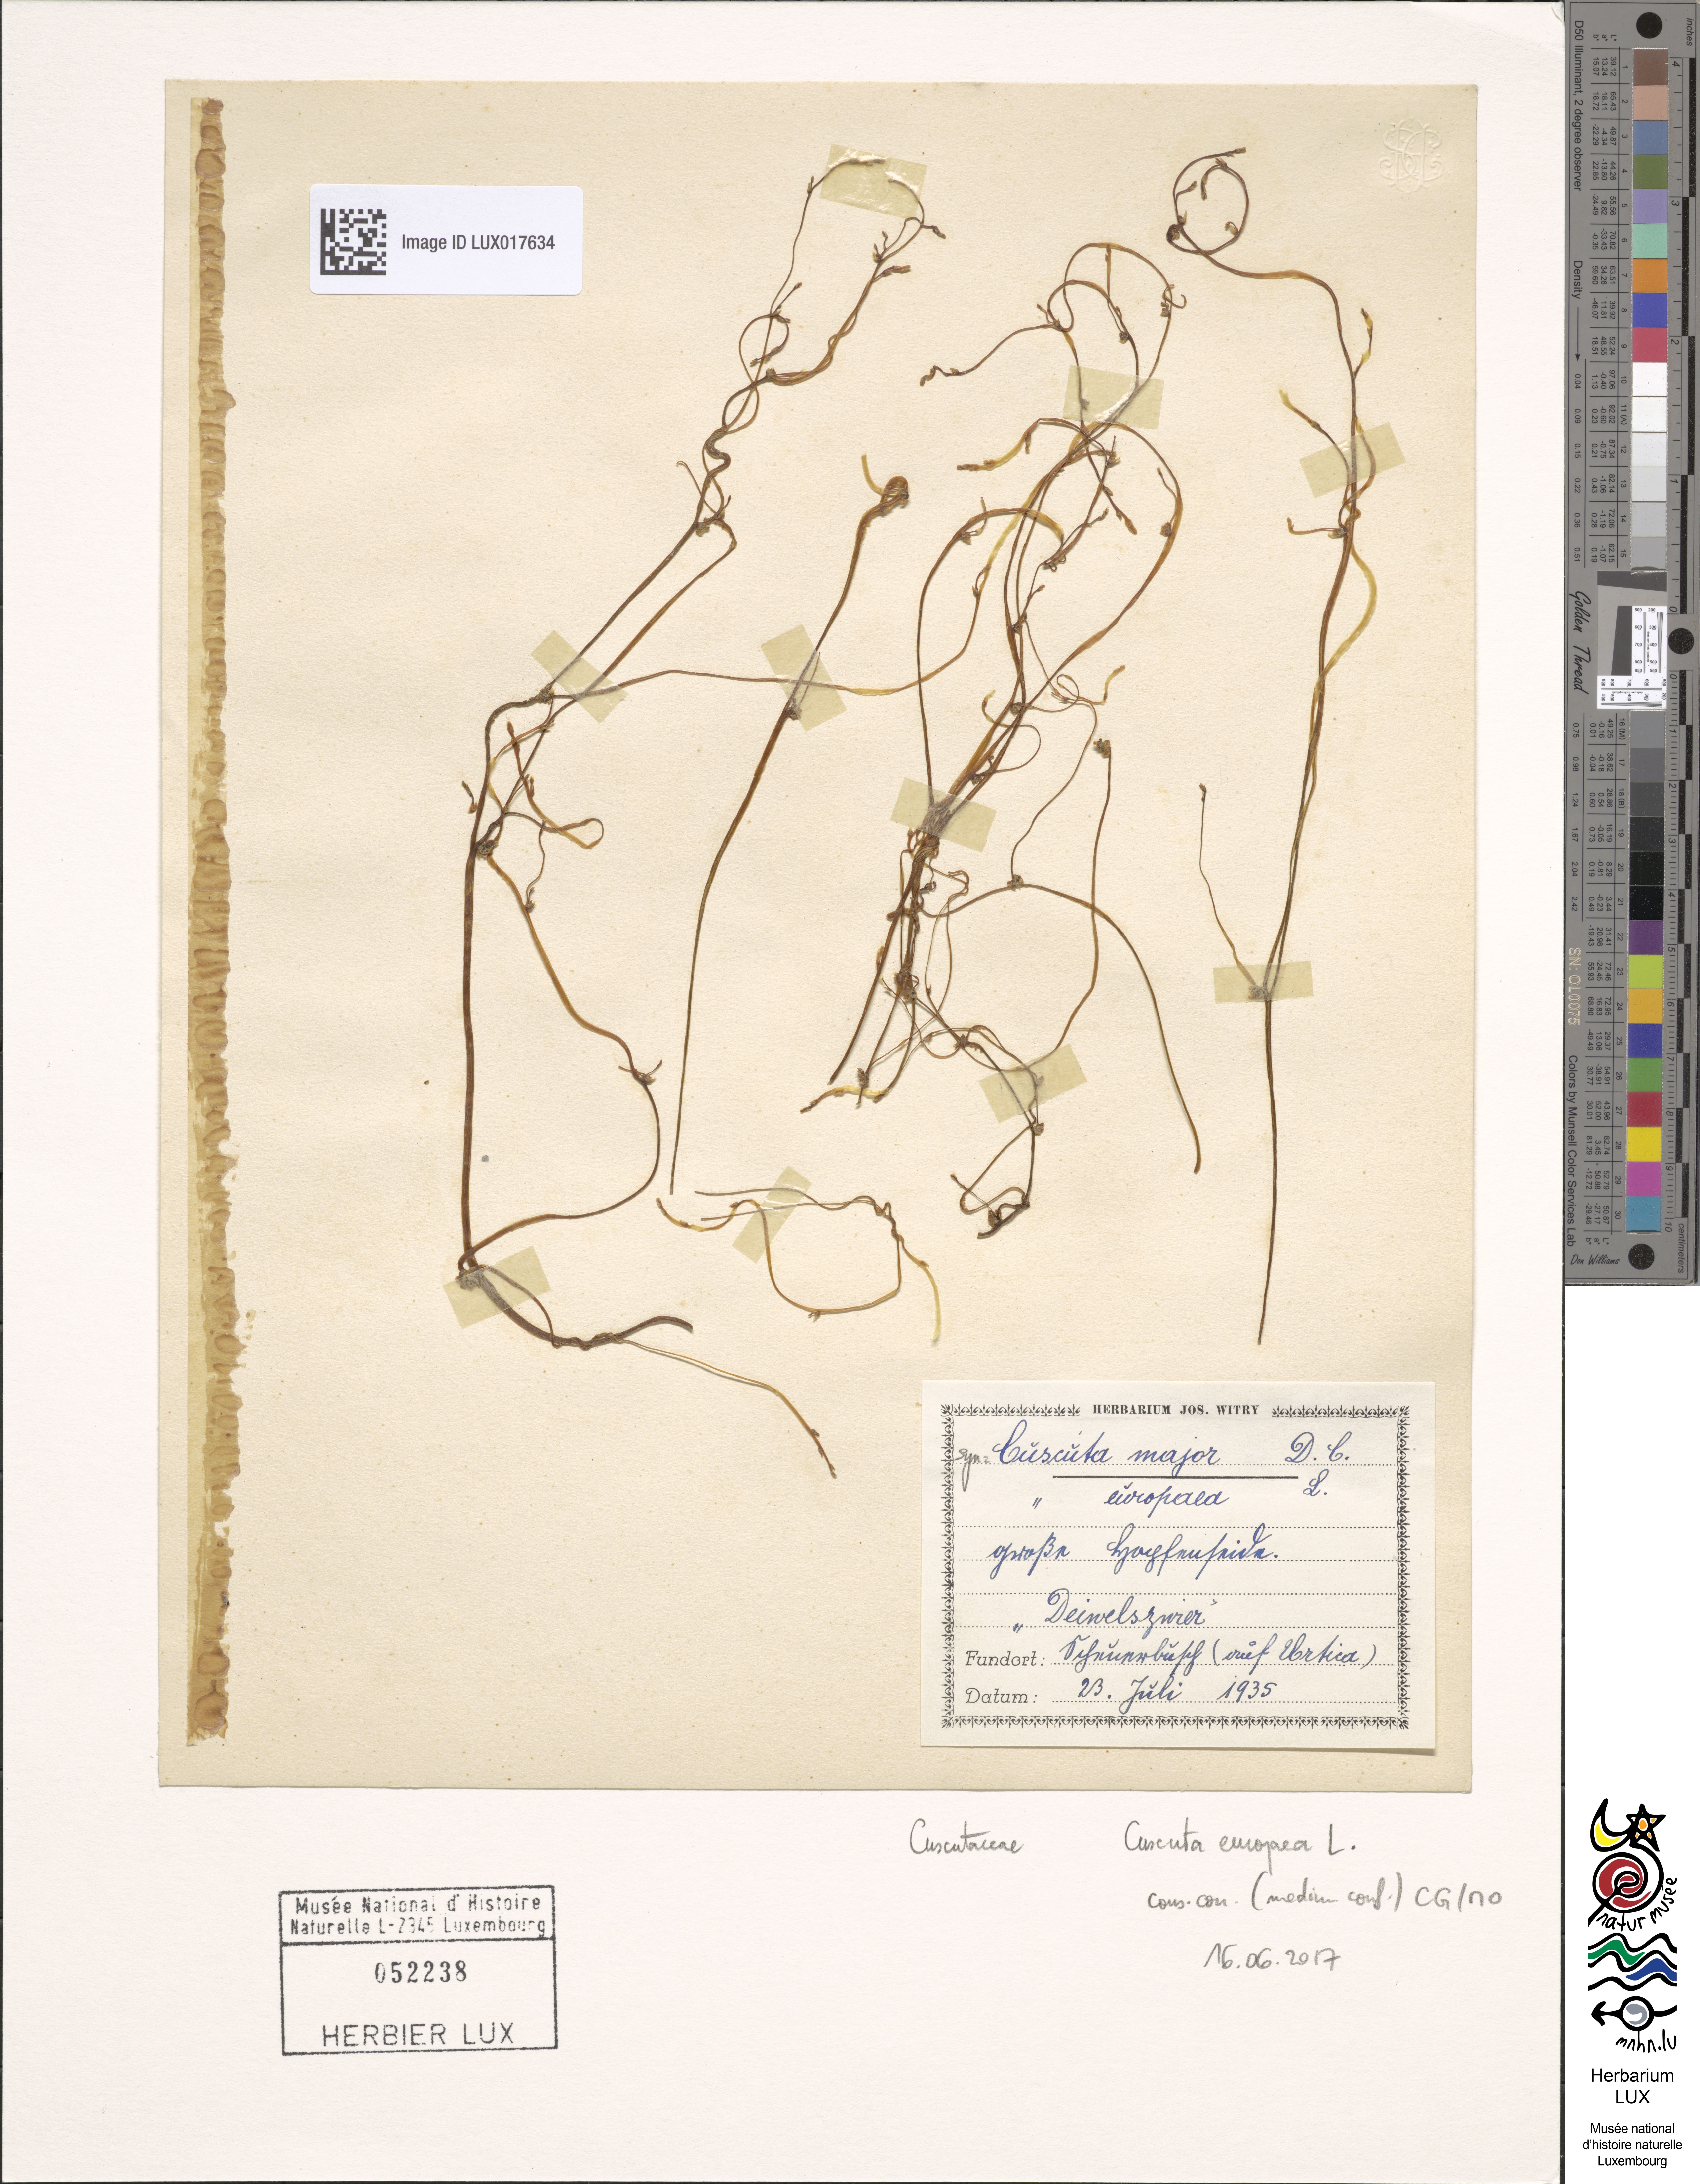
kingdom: Plantae
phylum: Tracheophyta
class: Magnoliopsida
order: Solanales
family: Convolvulaceae
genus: Cuscuta
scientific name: Cuscuta europaea
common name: Greater dodder
